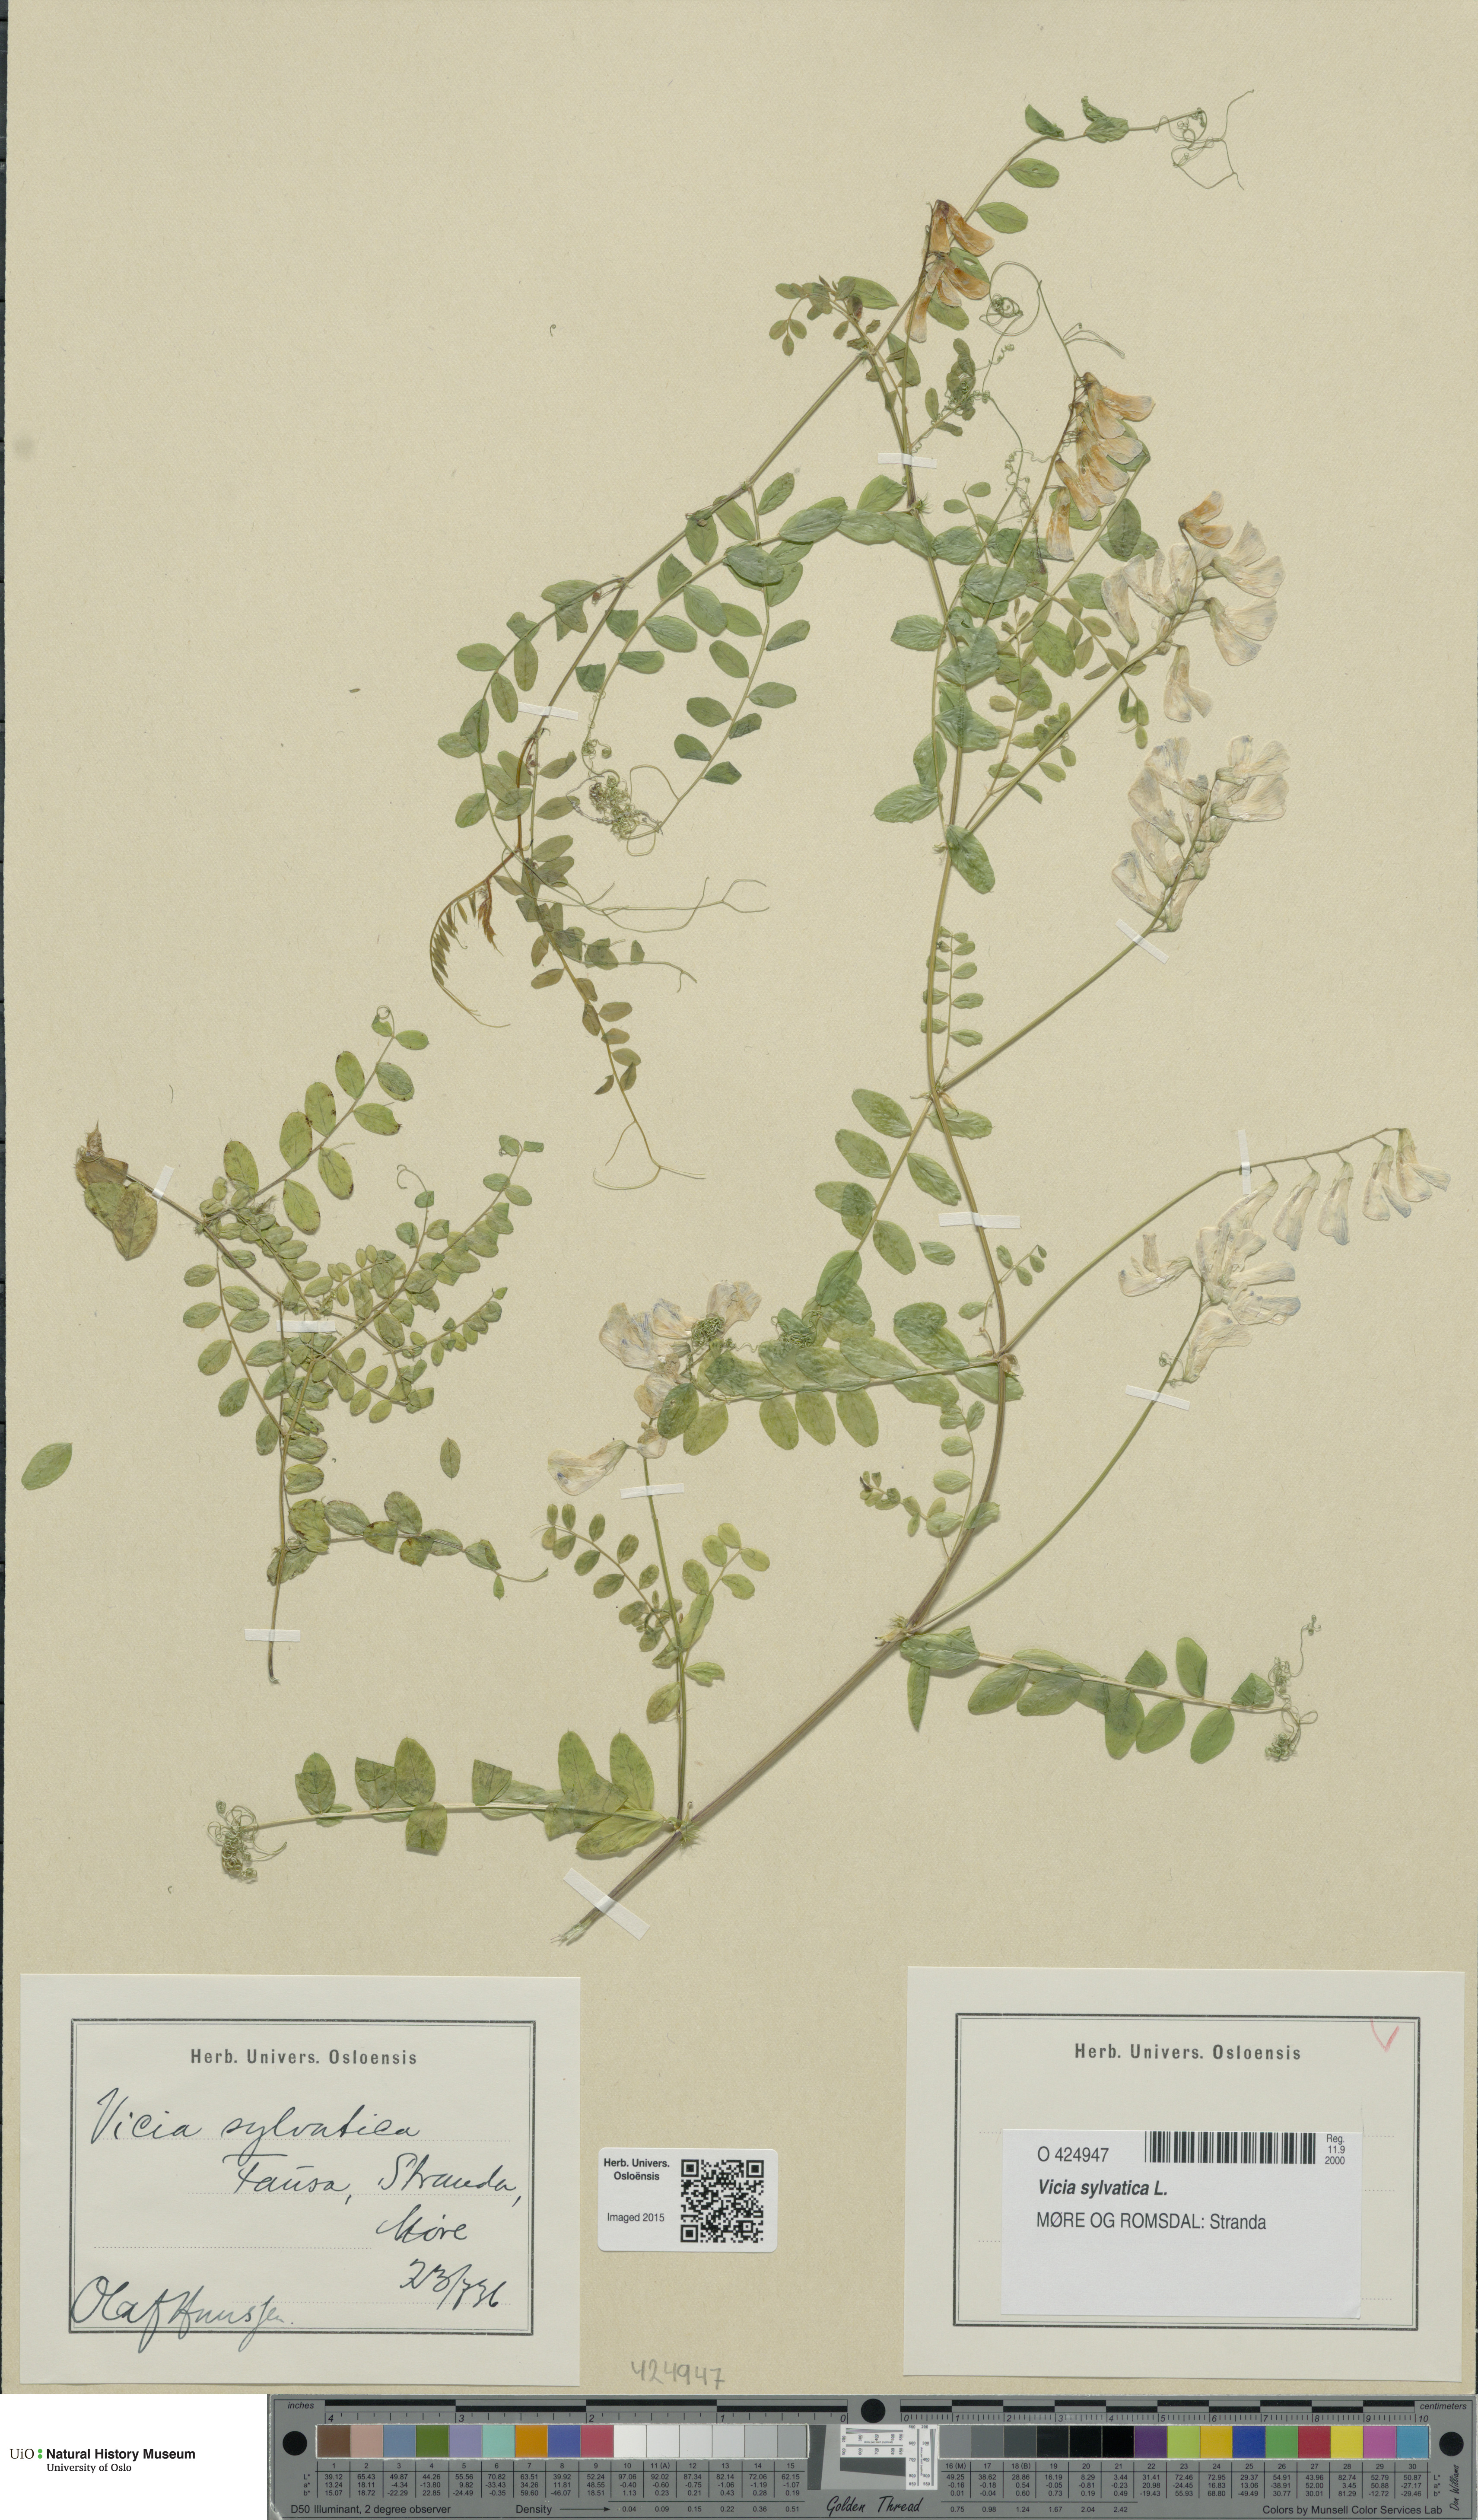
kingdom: Plantae
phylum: Tracheophyta
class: Magnoliopsida
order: Fabales
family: Fabaceae
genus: Vicia
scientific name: Vicia sylvatica
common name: Wood vetch
